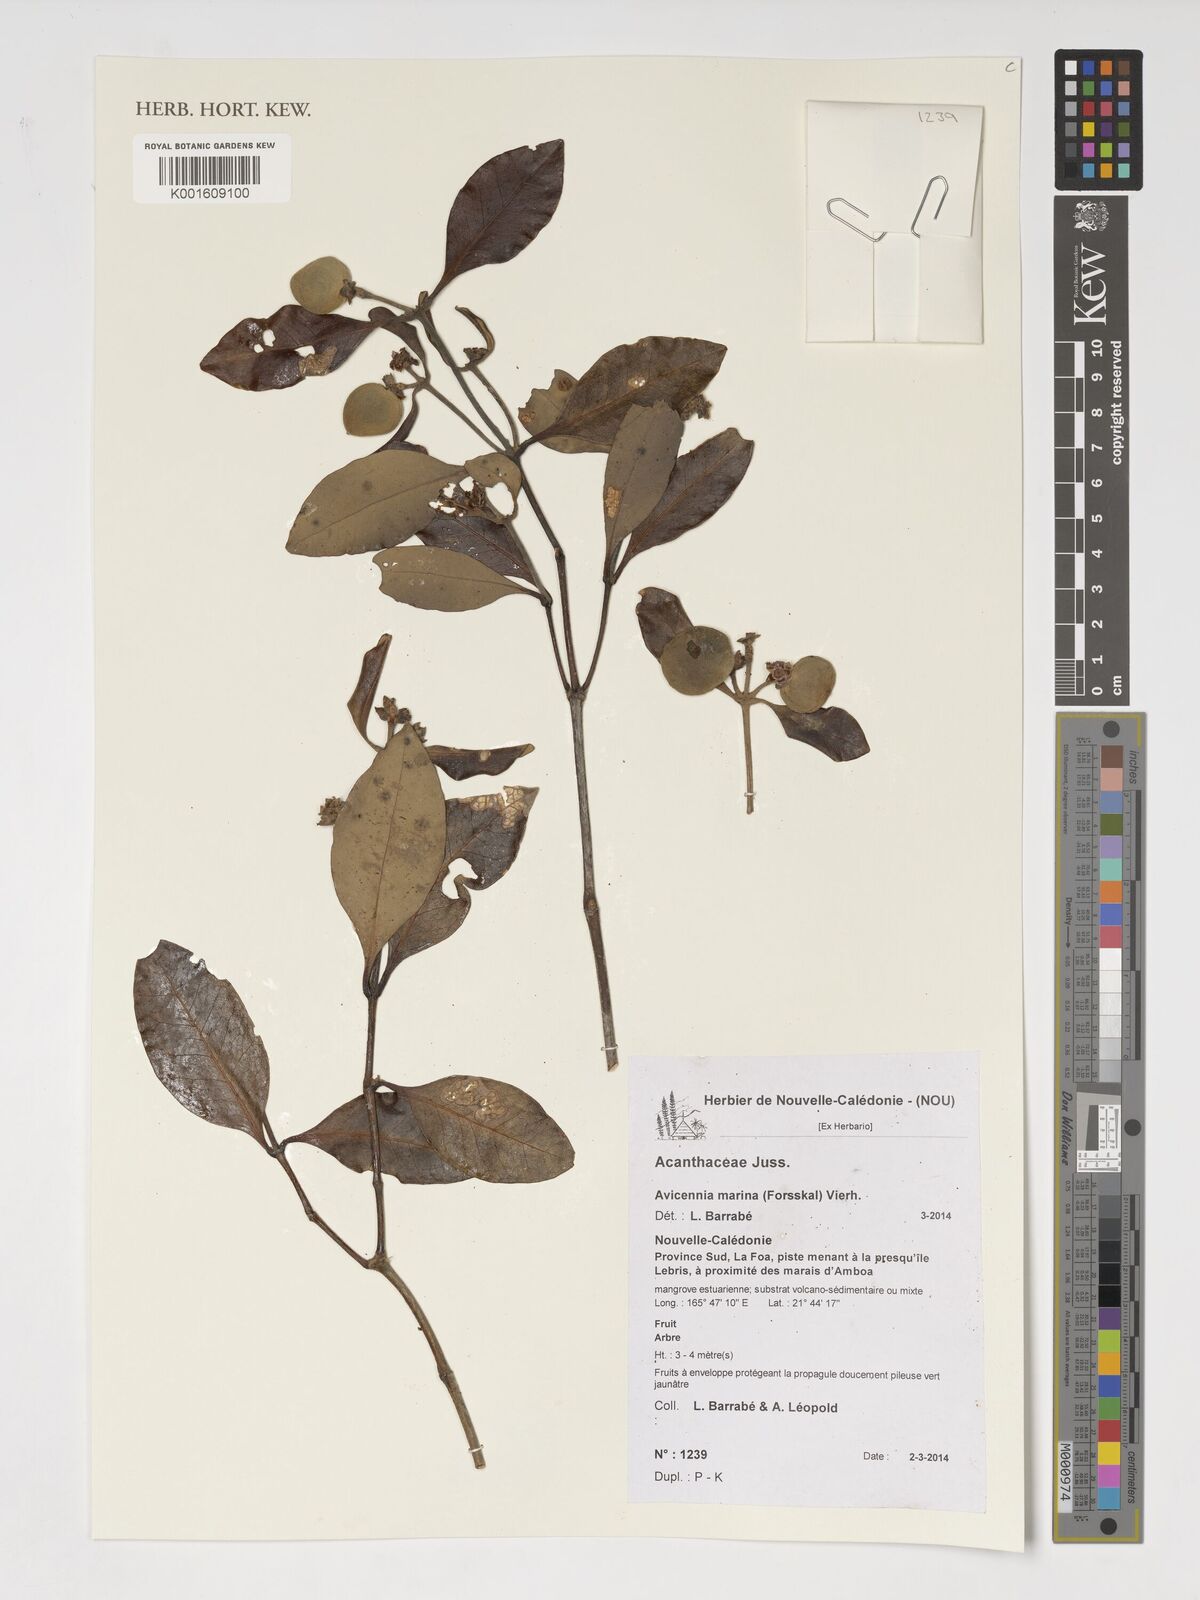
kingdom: Plantae
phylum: Tracheophyta
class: Magnoliopsida
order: Lamiales
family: Acanthaceae
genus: Avicennia
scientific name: Avicennia marina
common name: Gray mangrove
